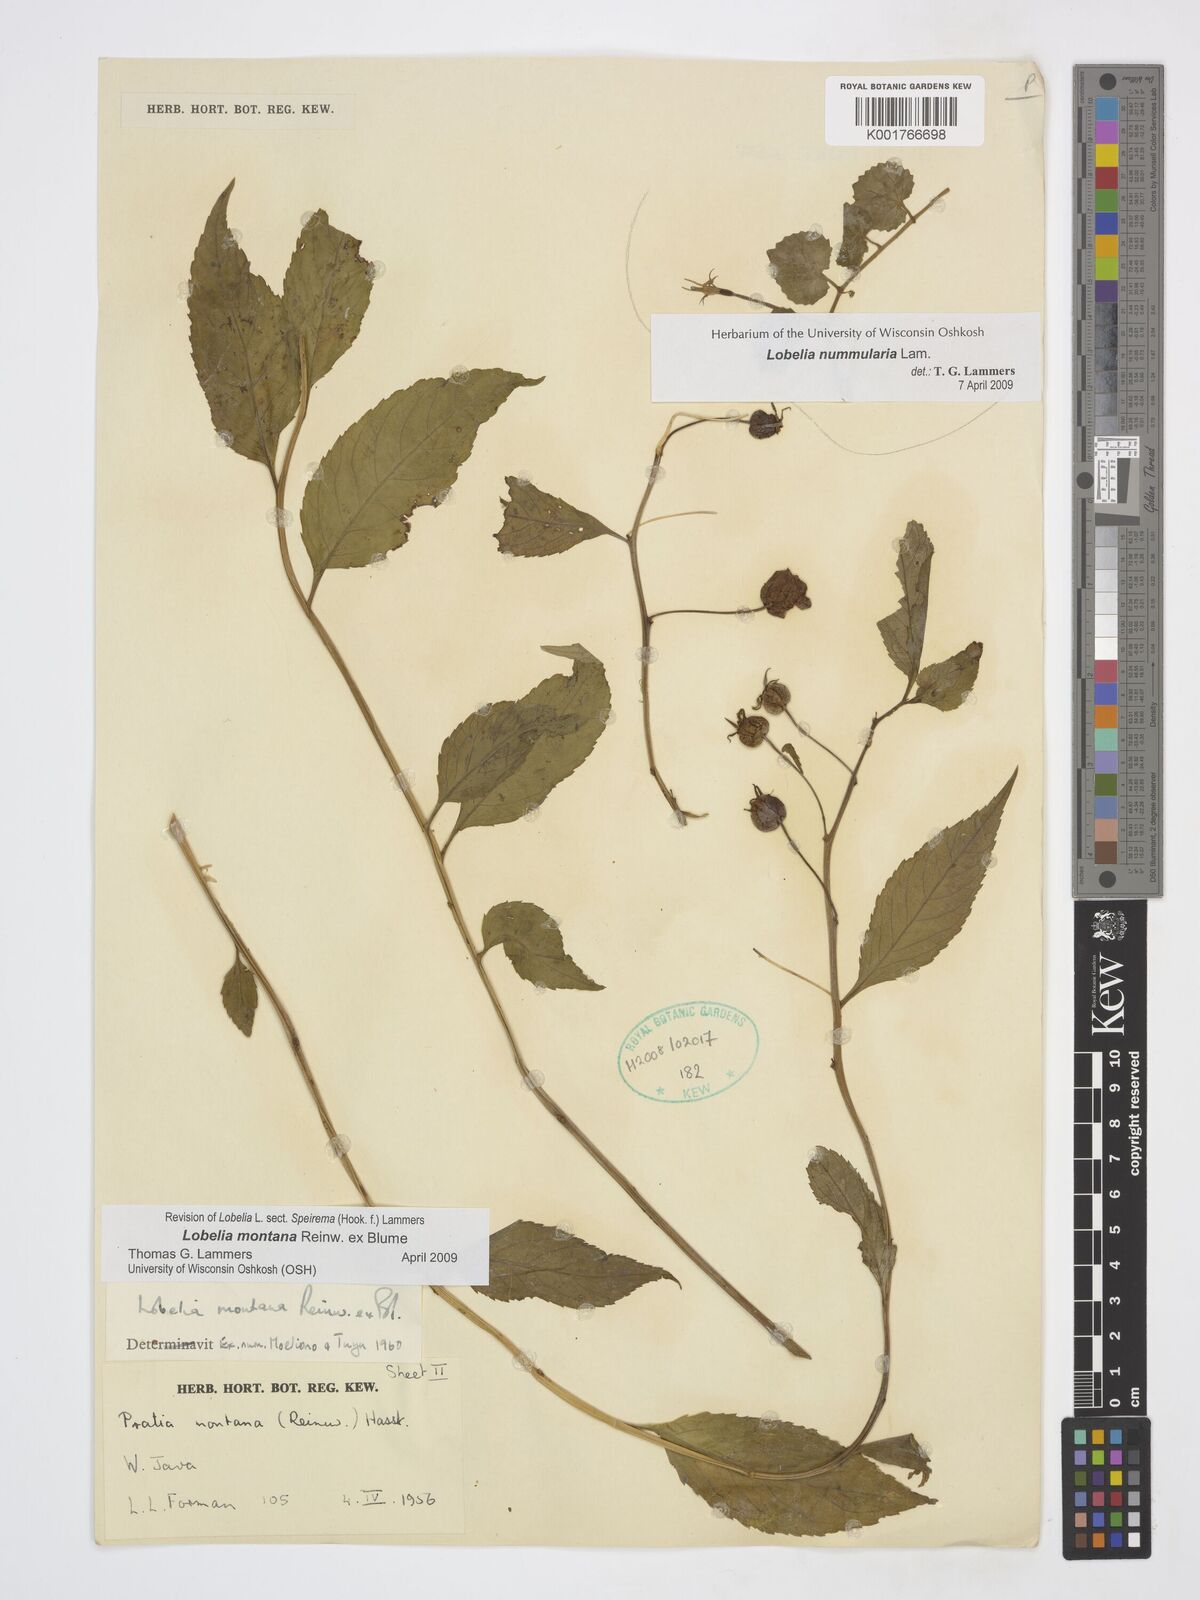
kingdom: Plantae
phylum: Tracheophyta
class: Magnoliopsida
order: Asterales
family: Campanulaceae
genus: Lobelia
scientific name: Lobelia montana
